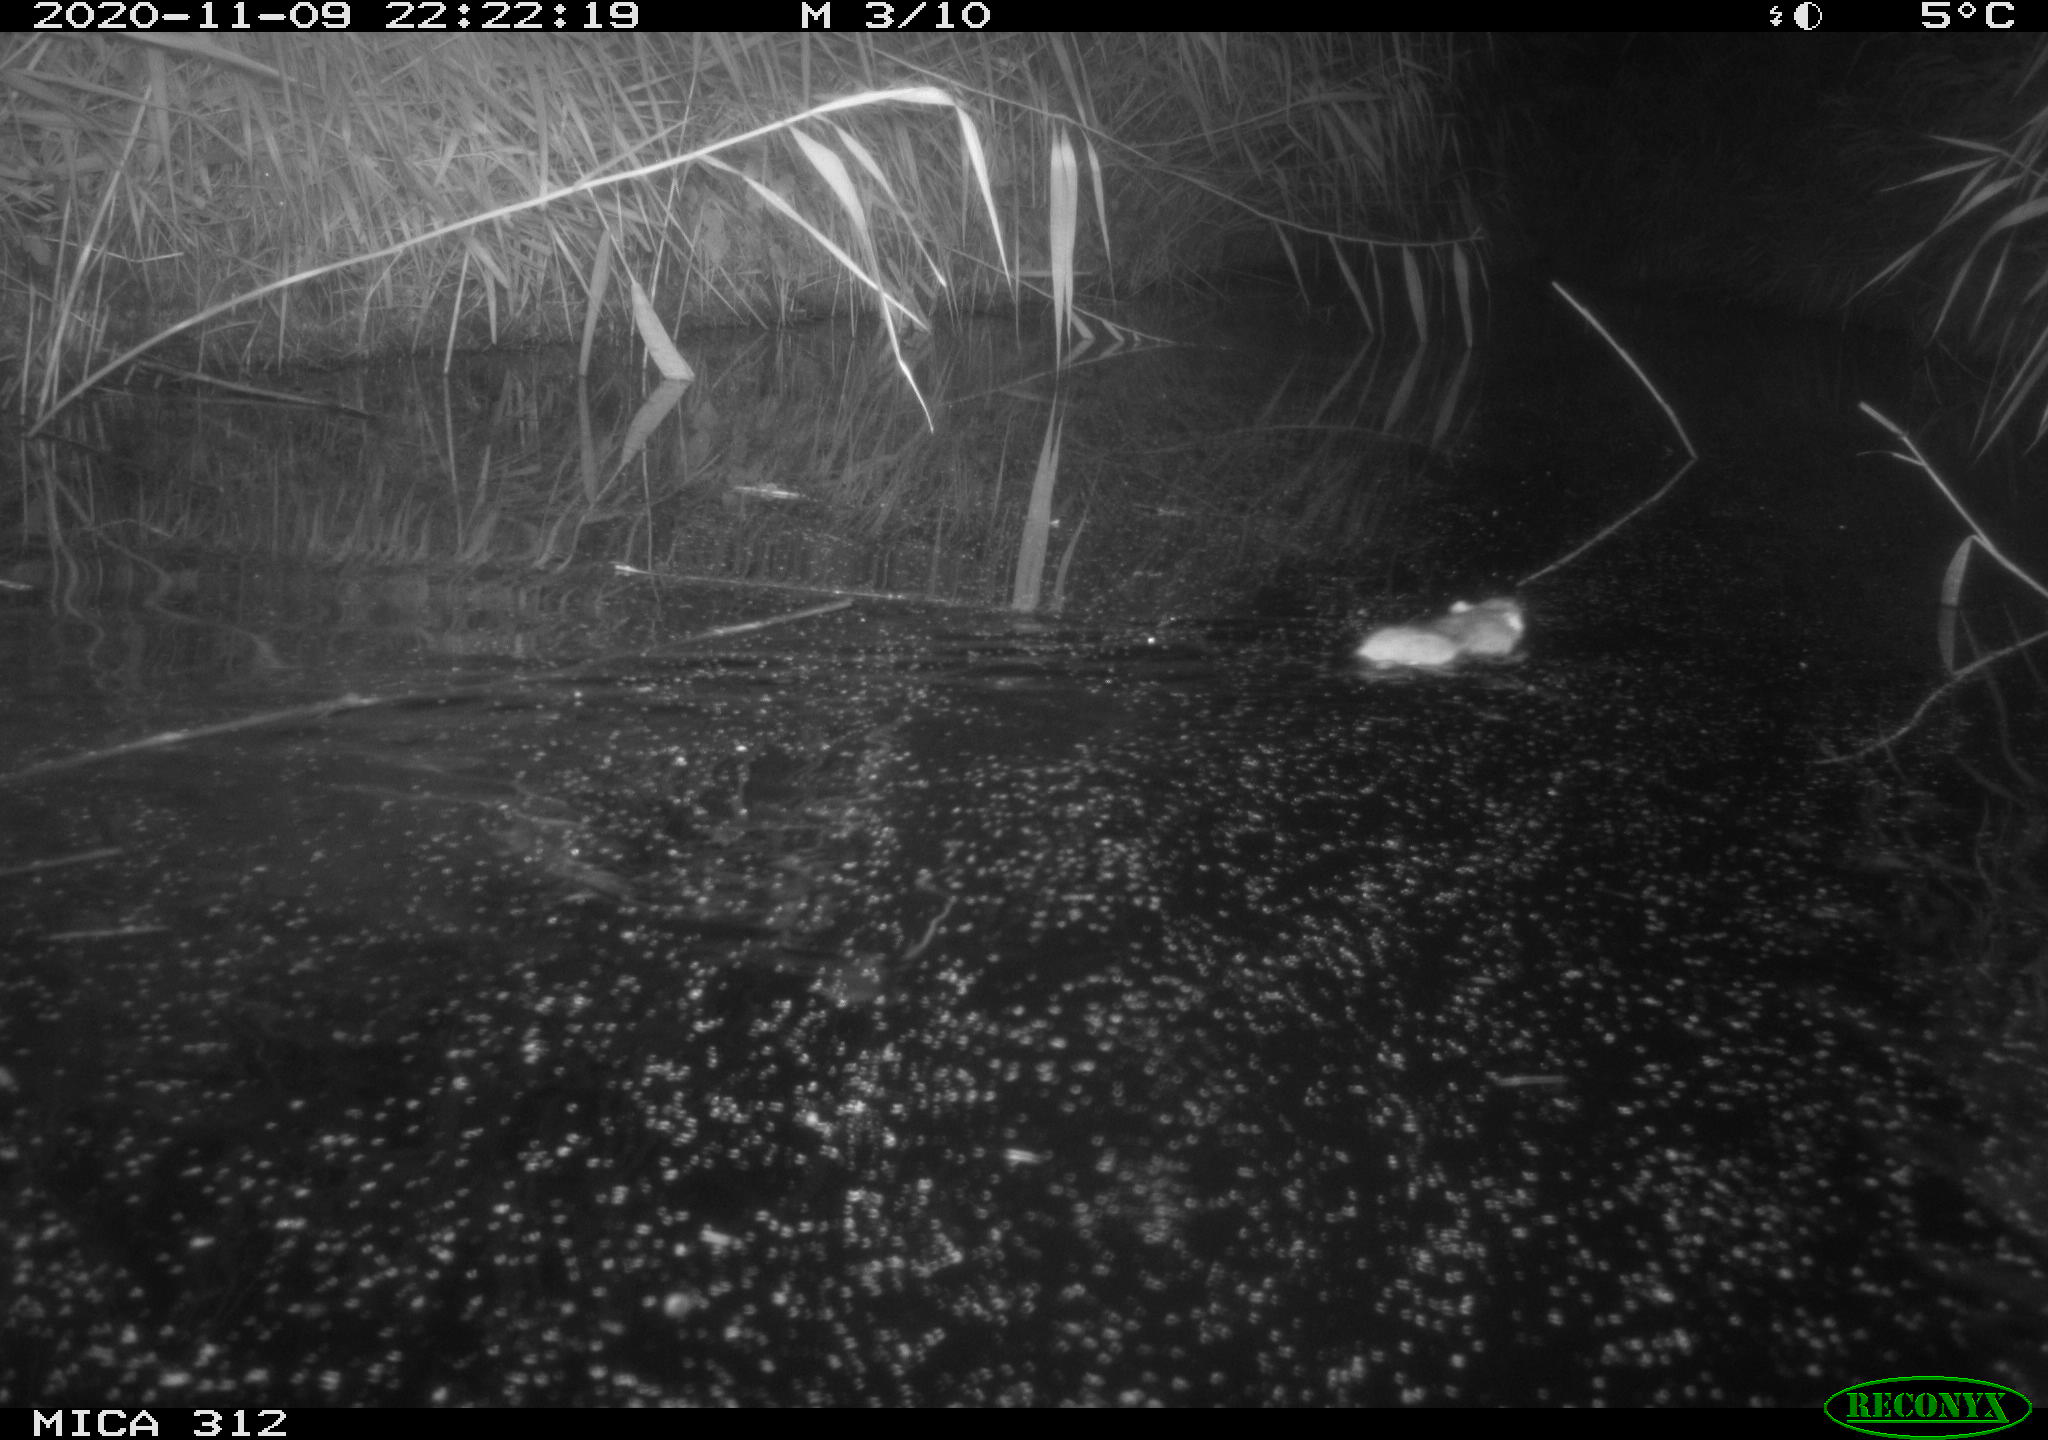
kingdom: Animalia
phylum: Chordata
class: Mammalia
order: Rodentia
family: Muridae
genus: Rattus
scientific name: Rattus norvegicus
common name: Brown rat
